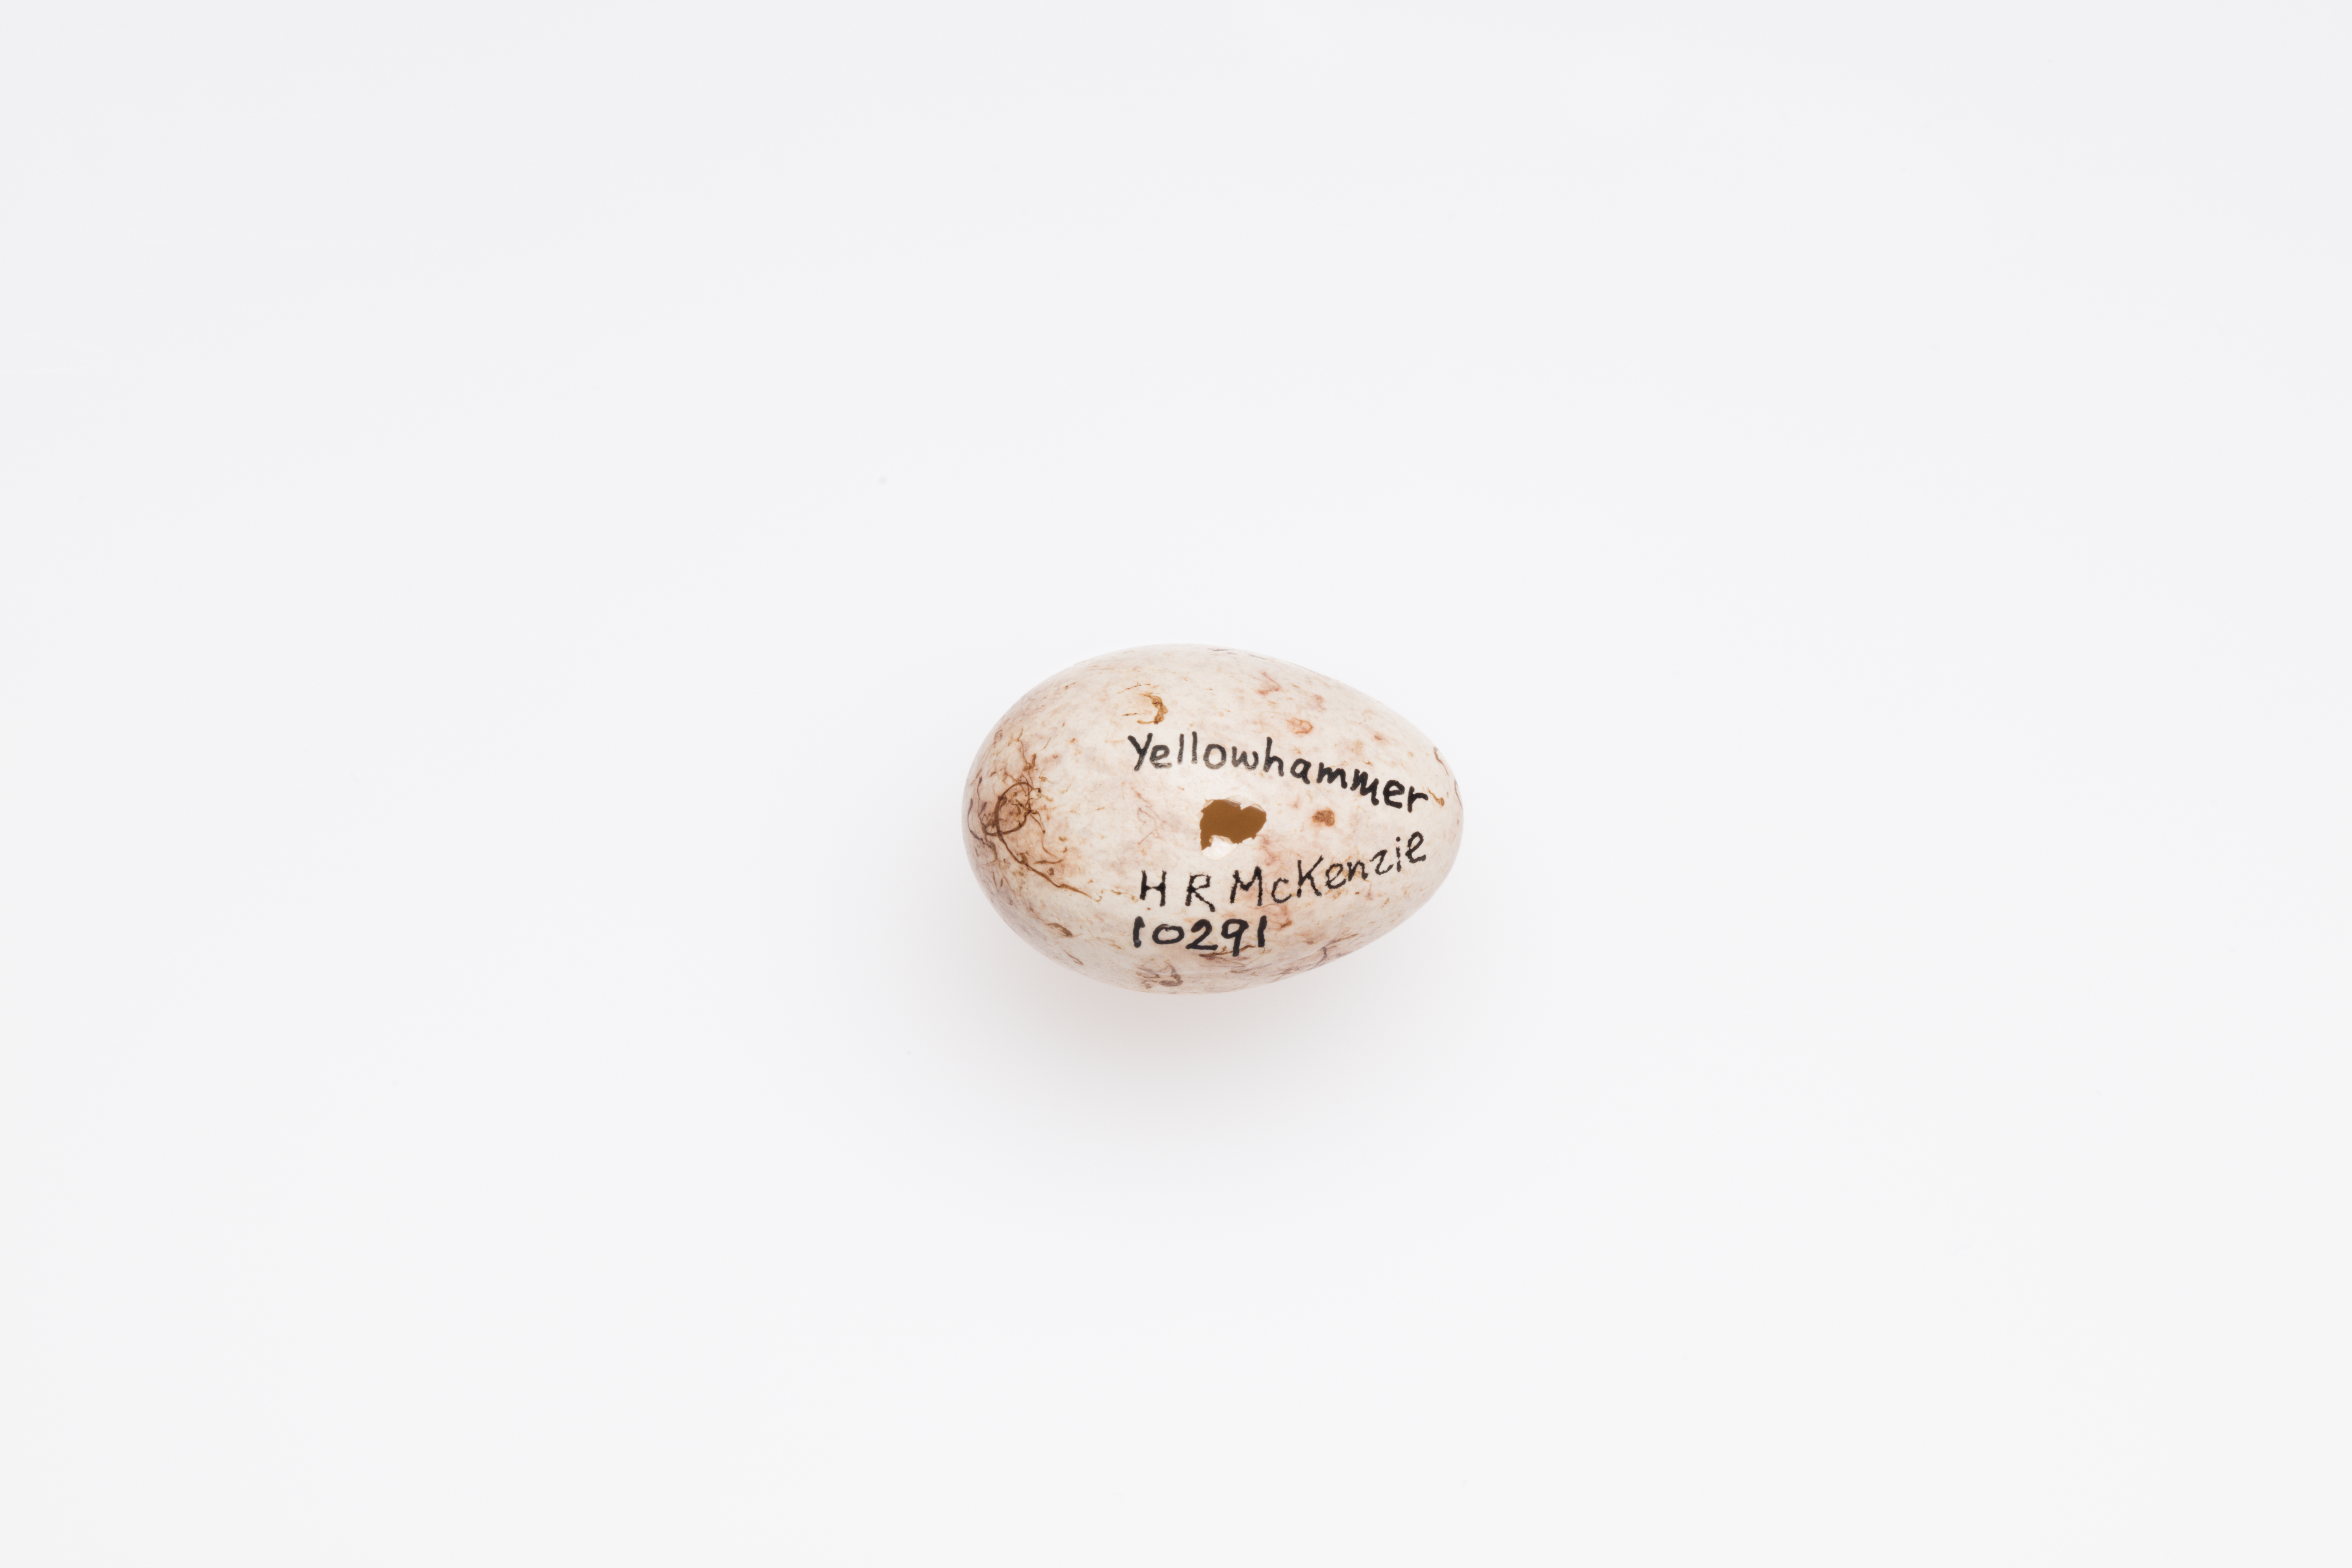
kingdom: Animalia
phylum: Chordata
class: Aves
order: Passeriformes
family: Emberizidae
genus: Emberiza
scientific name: Emberiza citrinella
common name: Yellowhammer
